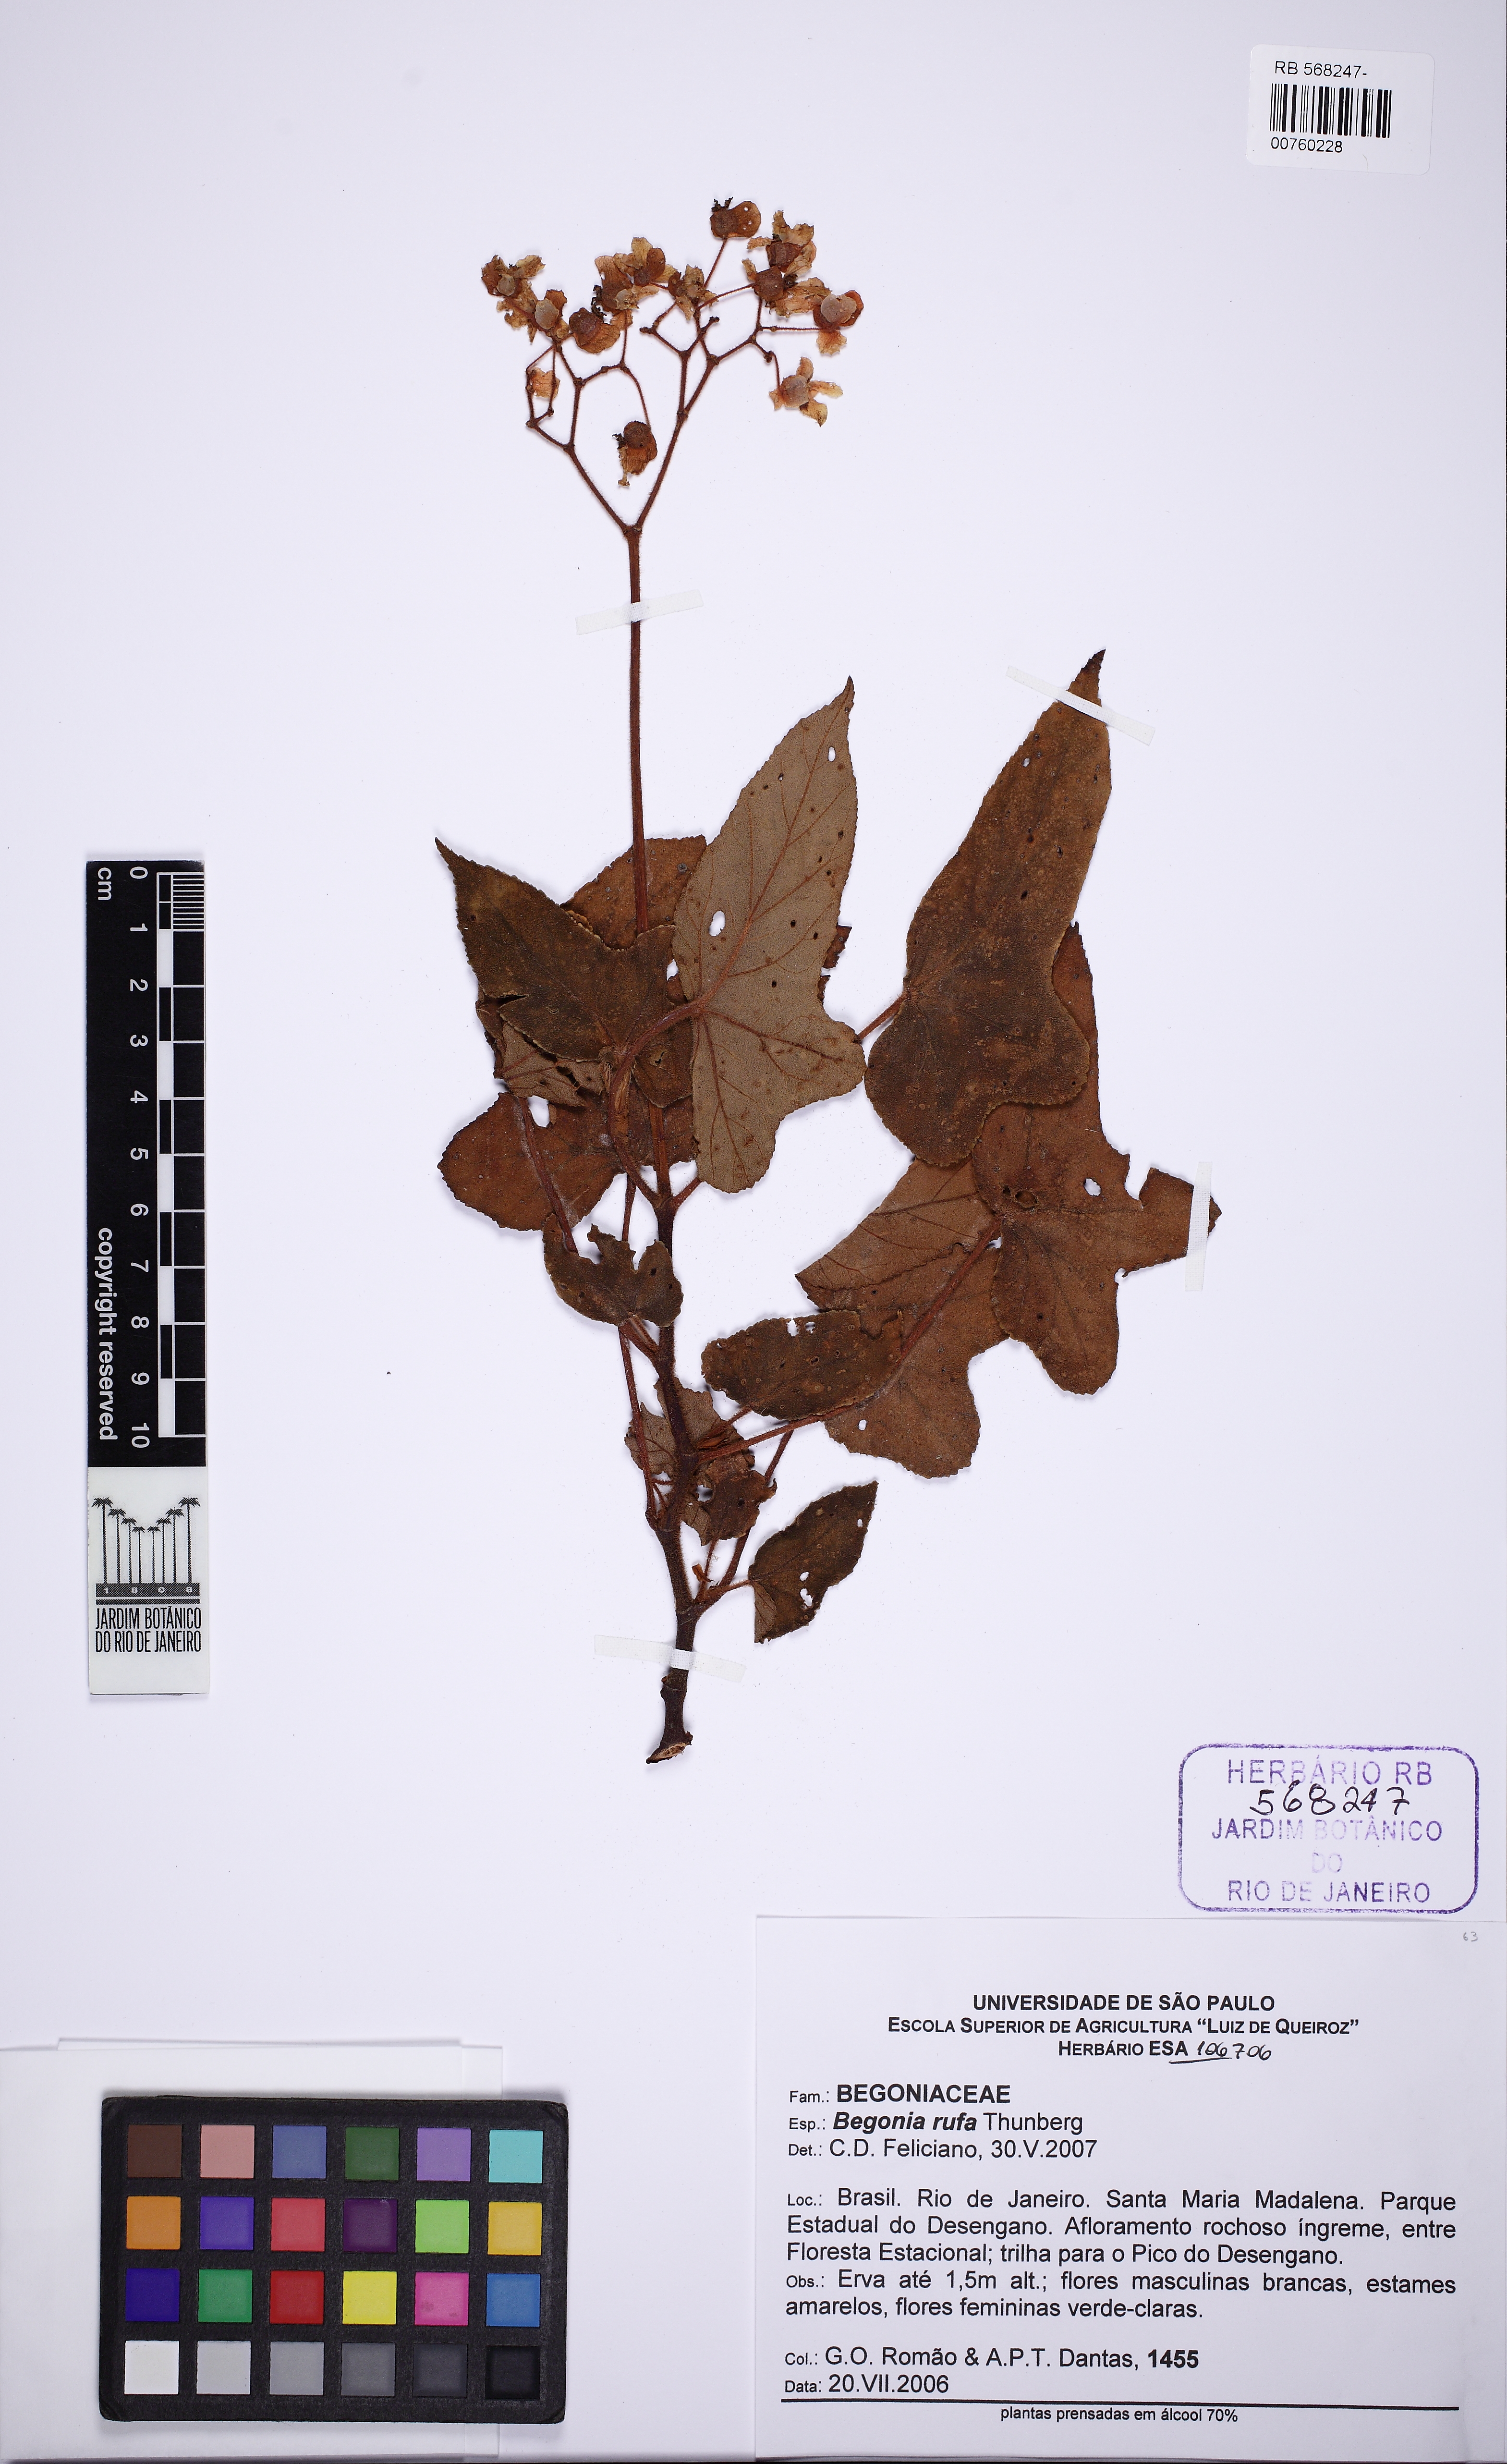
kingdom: Plantae
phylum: Tracheophyta
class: Magnoliopsida
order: Cucurbitales
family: Begoniaceae
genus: Begonia
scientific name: Begonia rufa
